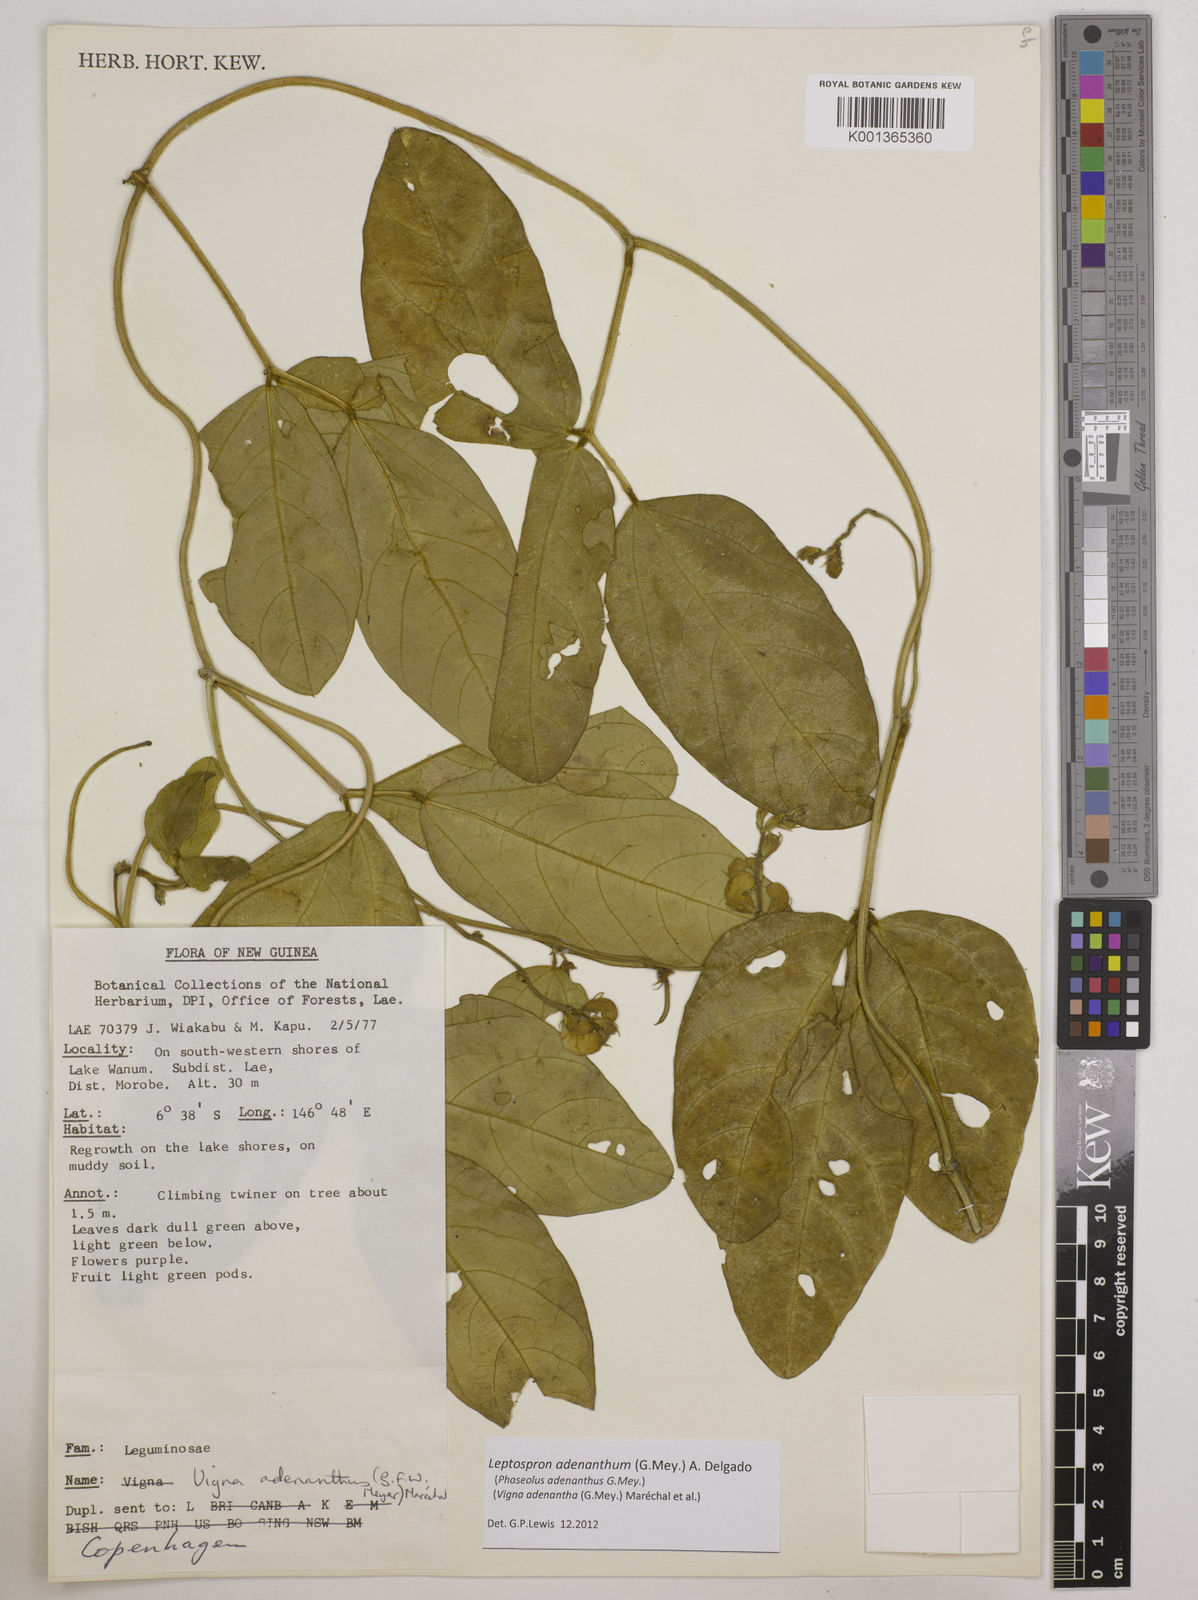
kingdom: Plantae
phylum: Tracheophyta
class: Magnoliopsida
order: Fabales
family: Fabaceae
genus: Leptospron
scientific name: Leptospron adenanthum
